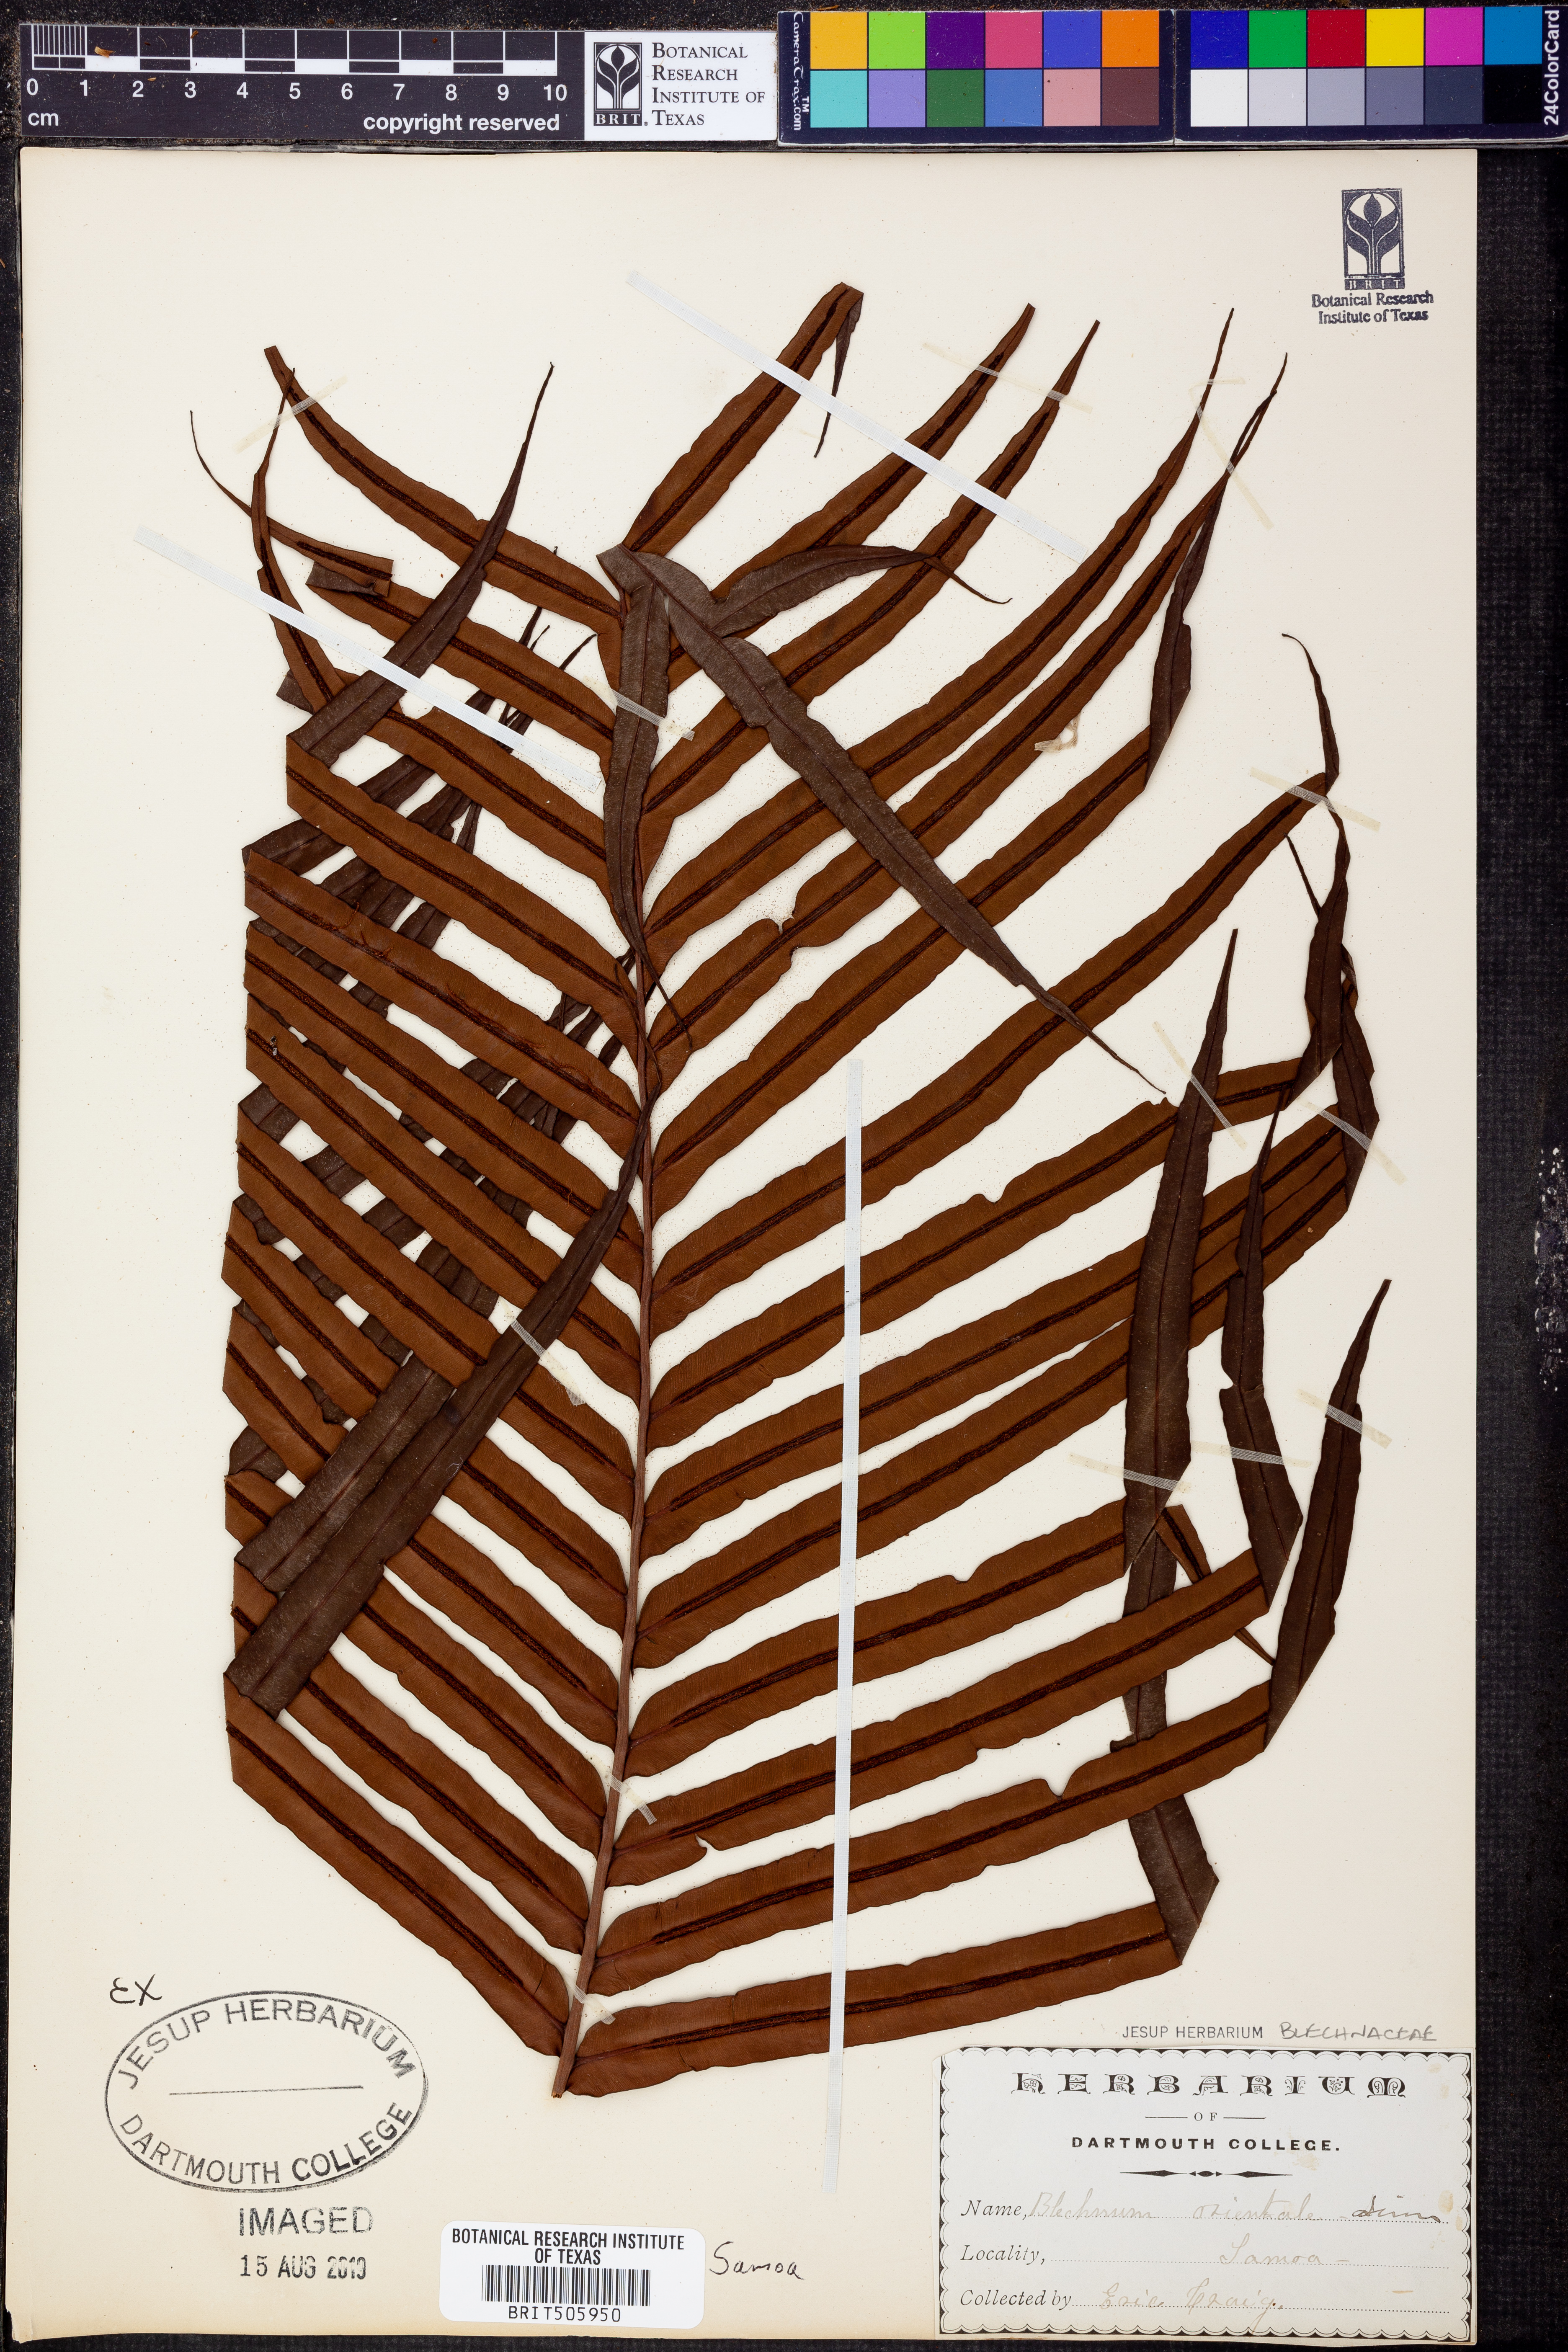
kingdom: Plantae
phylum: Tracheophyta
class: Polypodiopsida
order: Polypodiales
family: Blechnaceae
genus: Blechnopsis
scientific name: Blechnopsis orientalis
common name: Oriental blechnum
